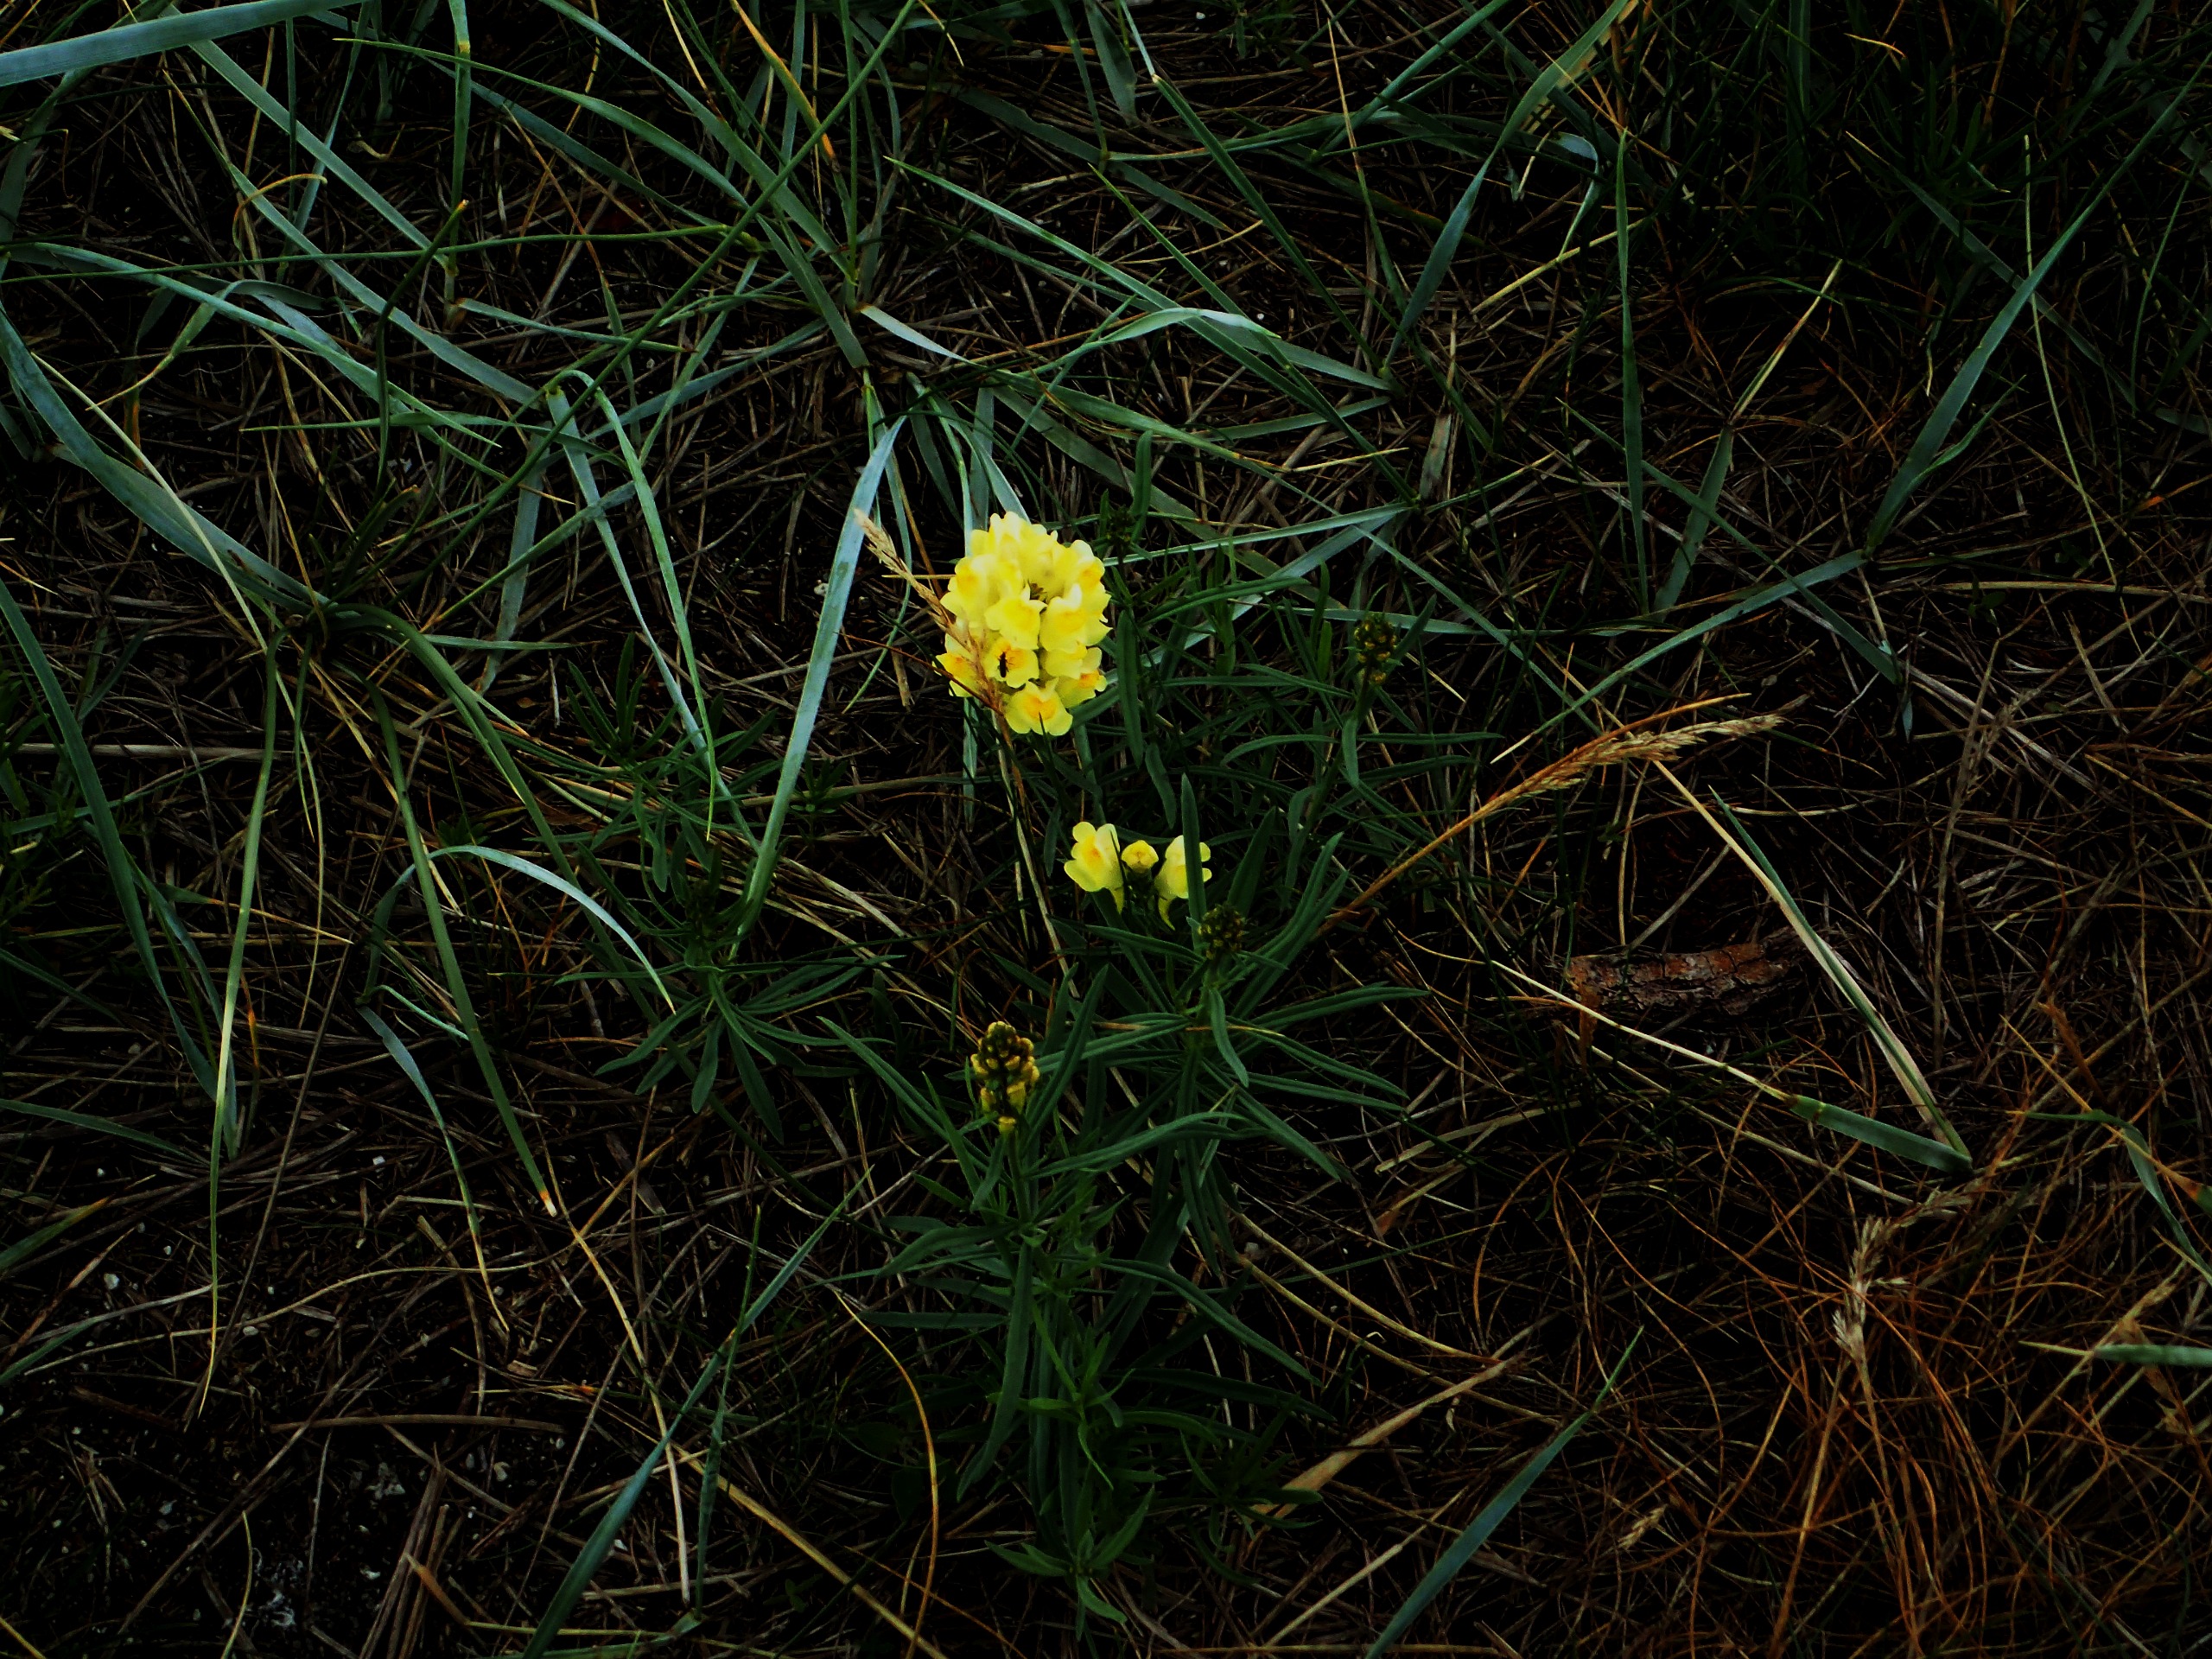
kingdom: Plantae
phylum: Tracheophyta
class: Magnoliopsida
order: Lamiales
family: Plantaginaceae
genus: Linaria
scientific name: Linaria vulgaris
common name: Almindelig torskemund
